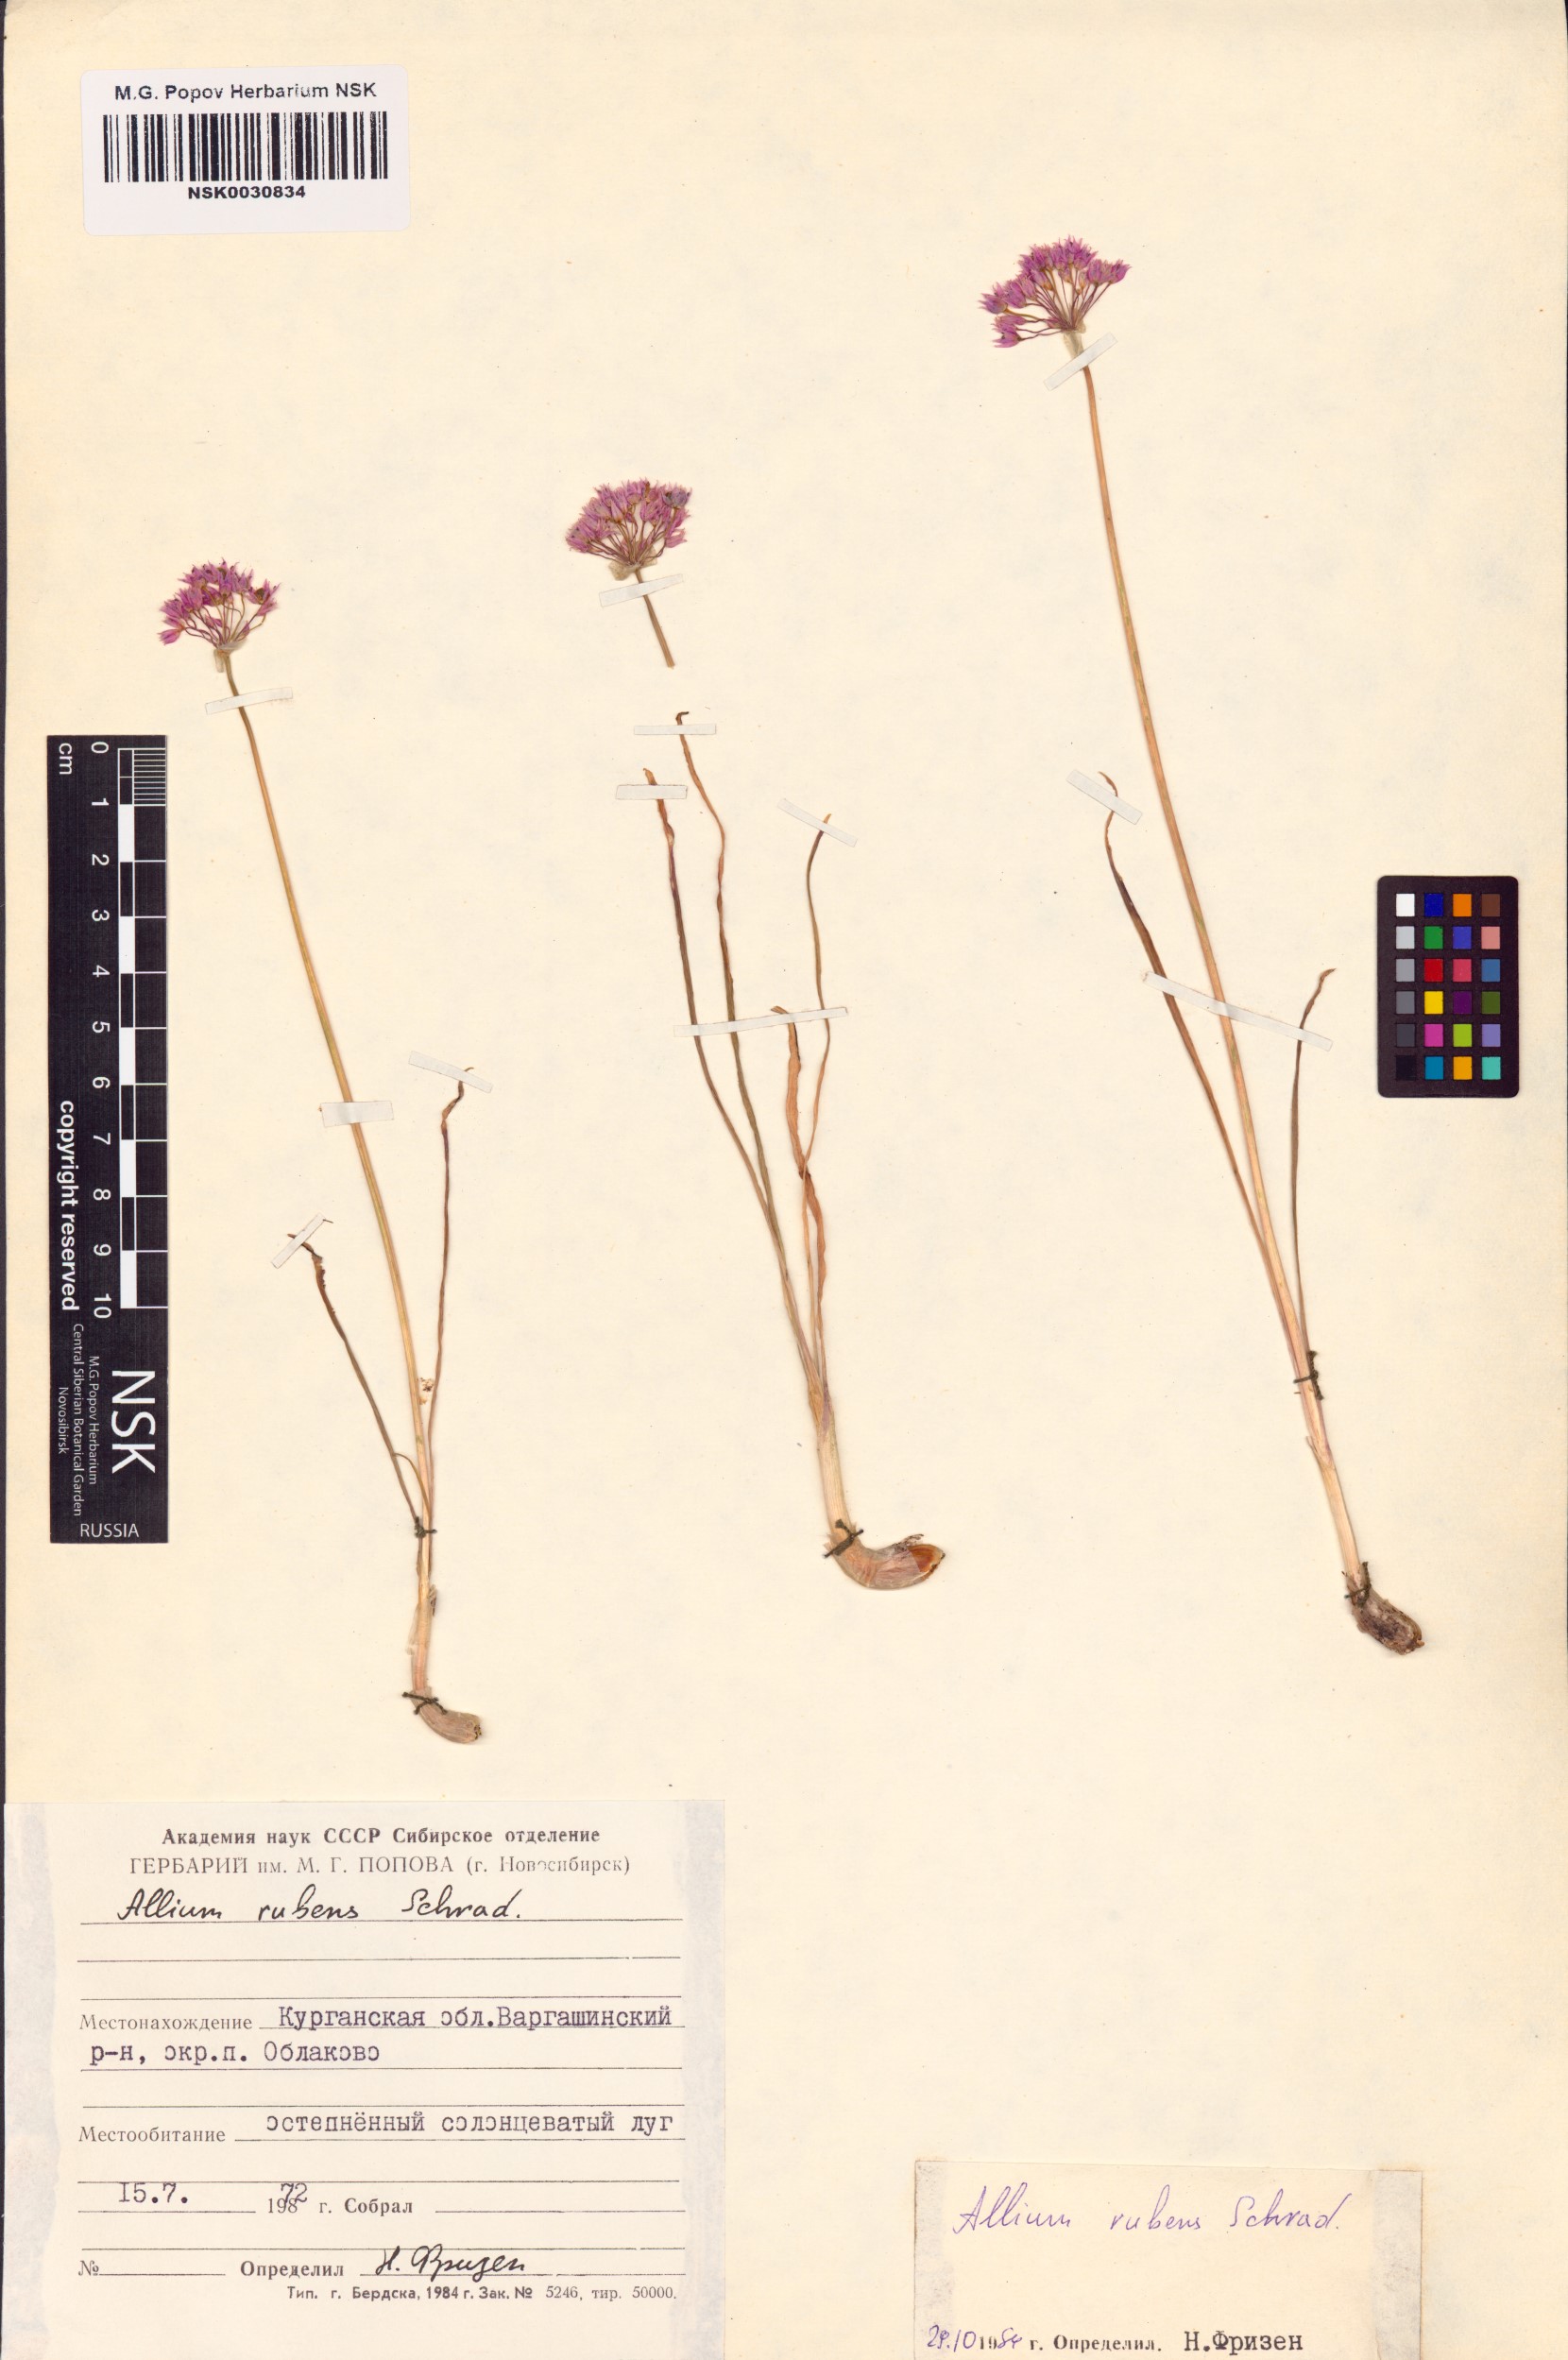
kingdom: Plantae
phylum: Tracheophyta
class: Liliopsida
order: Asparagales
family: Amaryllidaceae
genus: Allium
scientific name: Allium rubens
